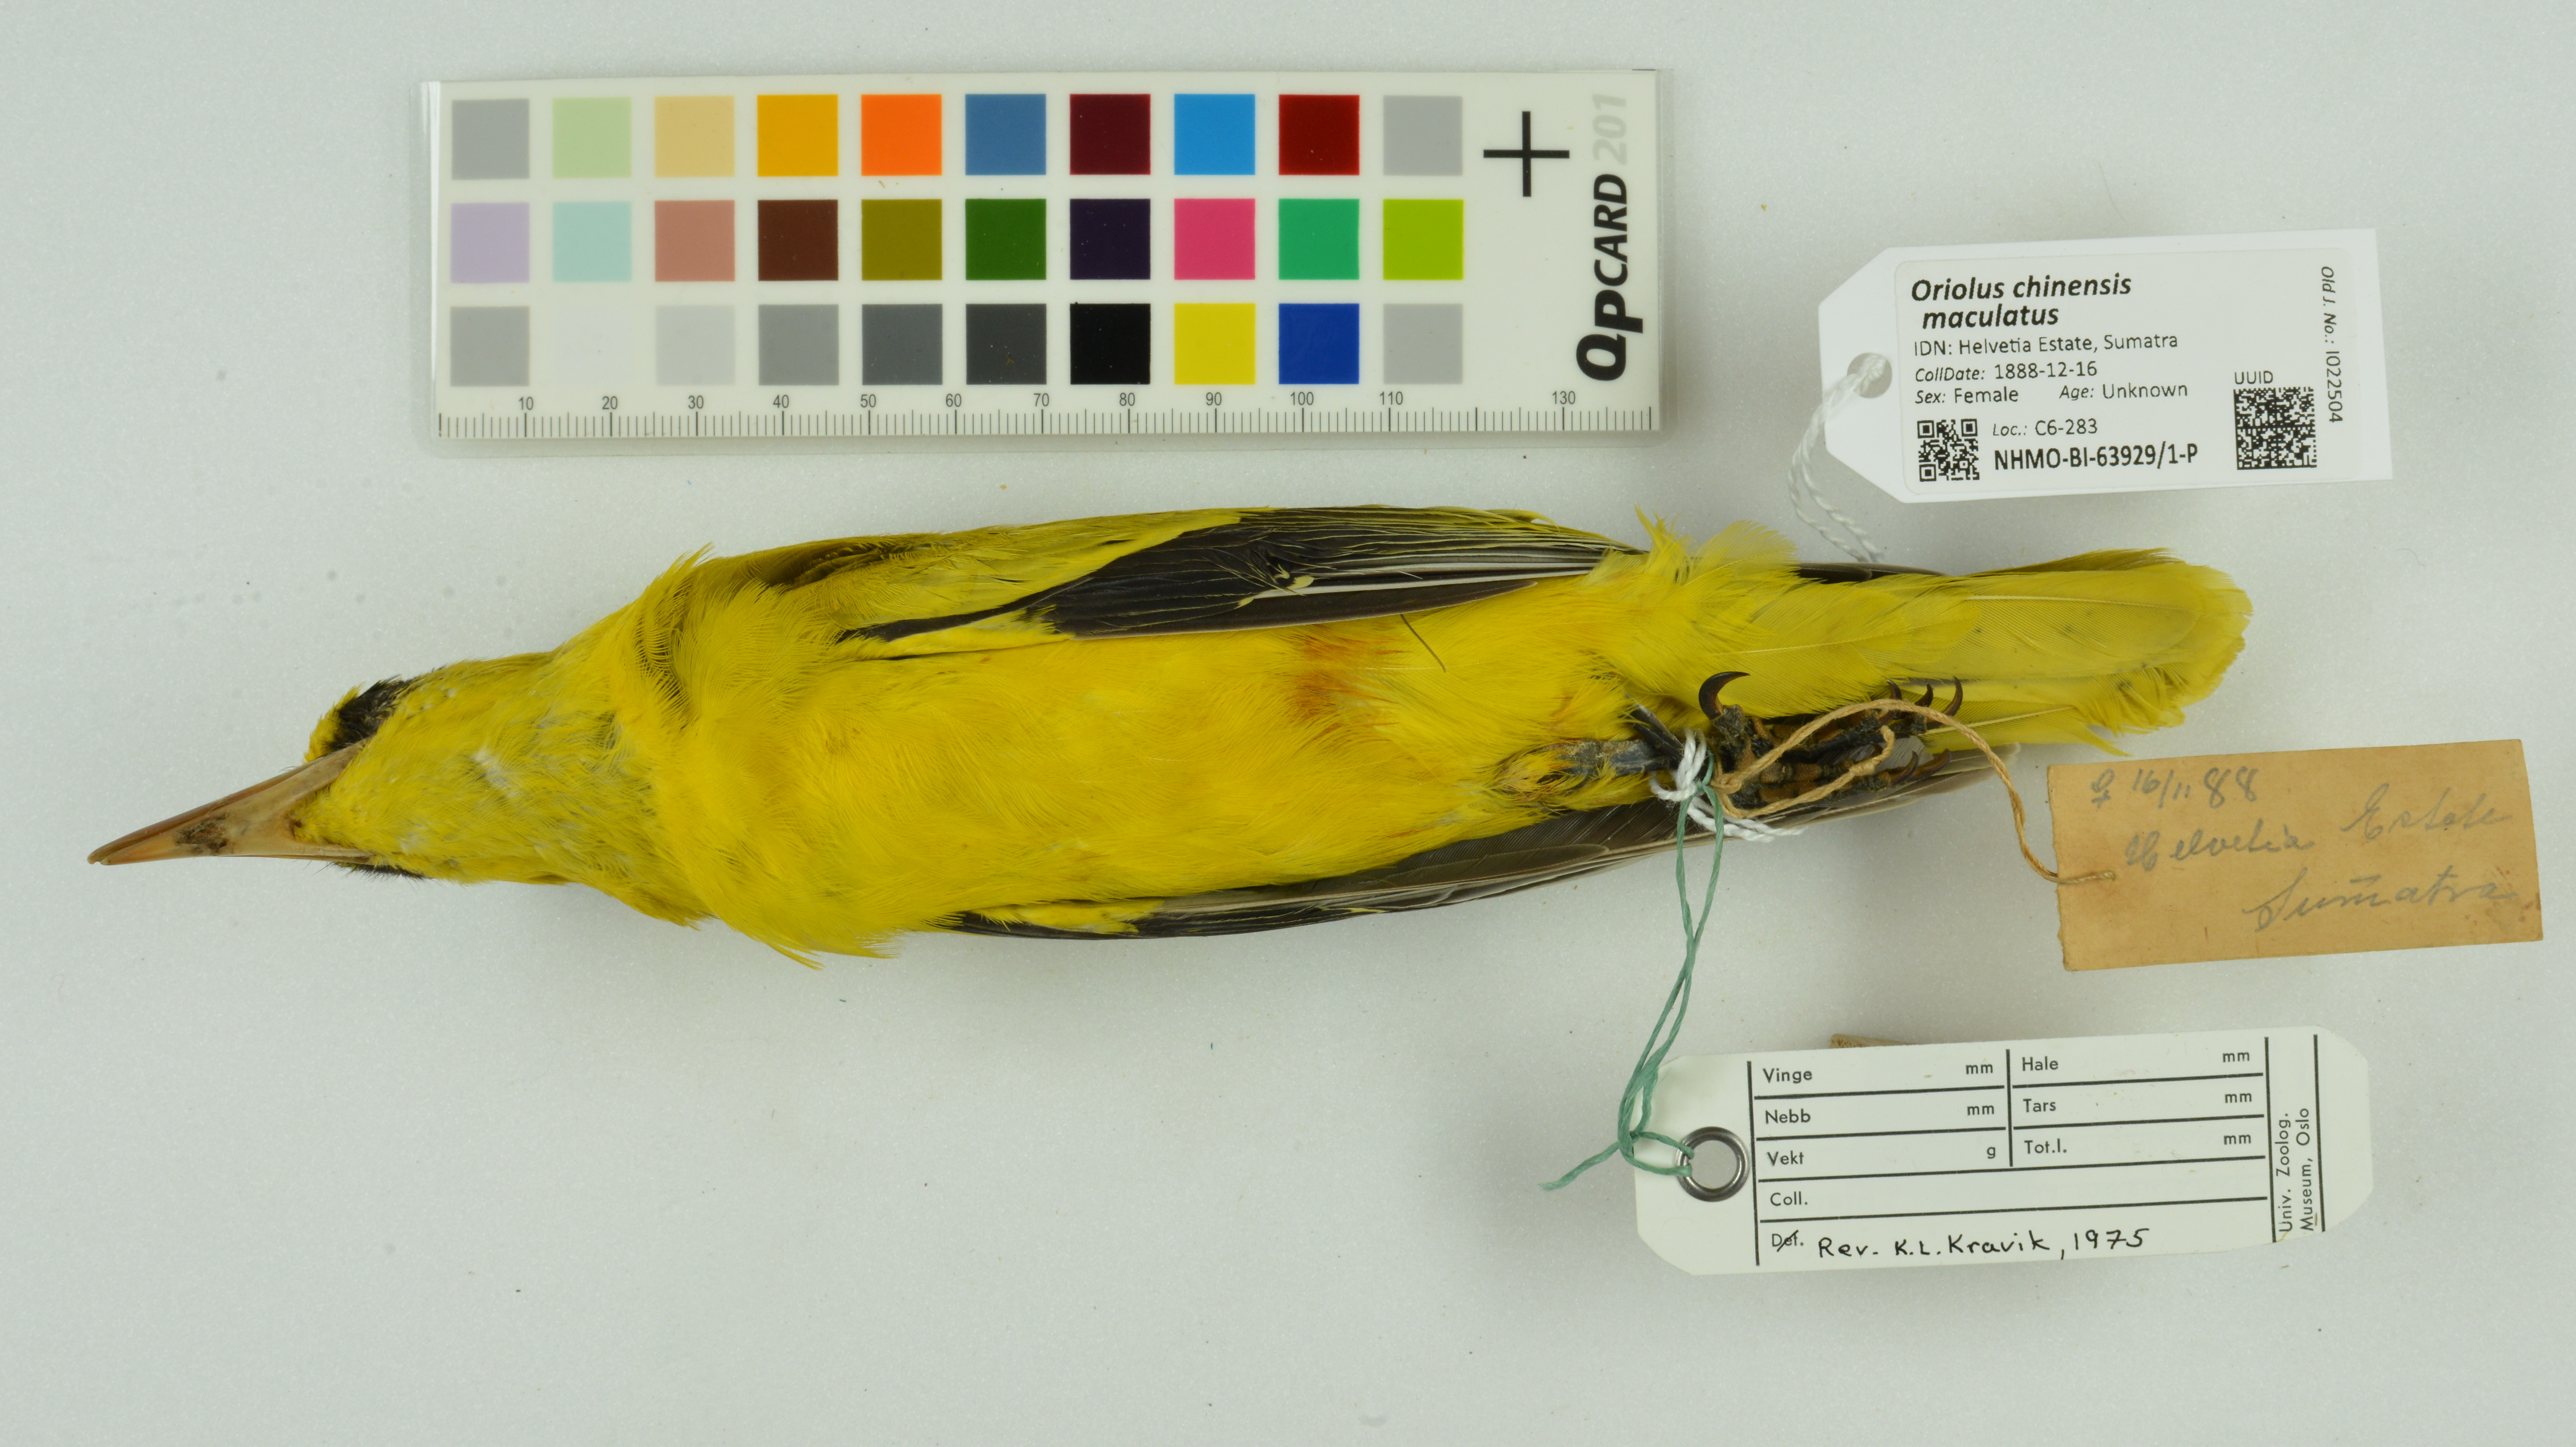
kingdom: Animalia
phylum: Chordata
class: Aves
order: Passeriformes
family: Oriolidae
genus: Oriolus
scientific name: Oriolus chinensis
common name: Black-naped oriole
